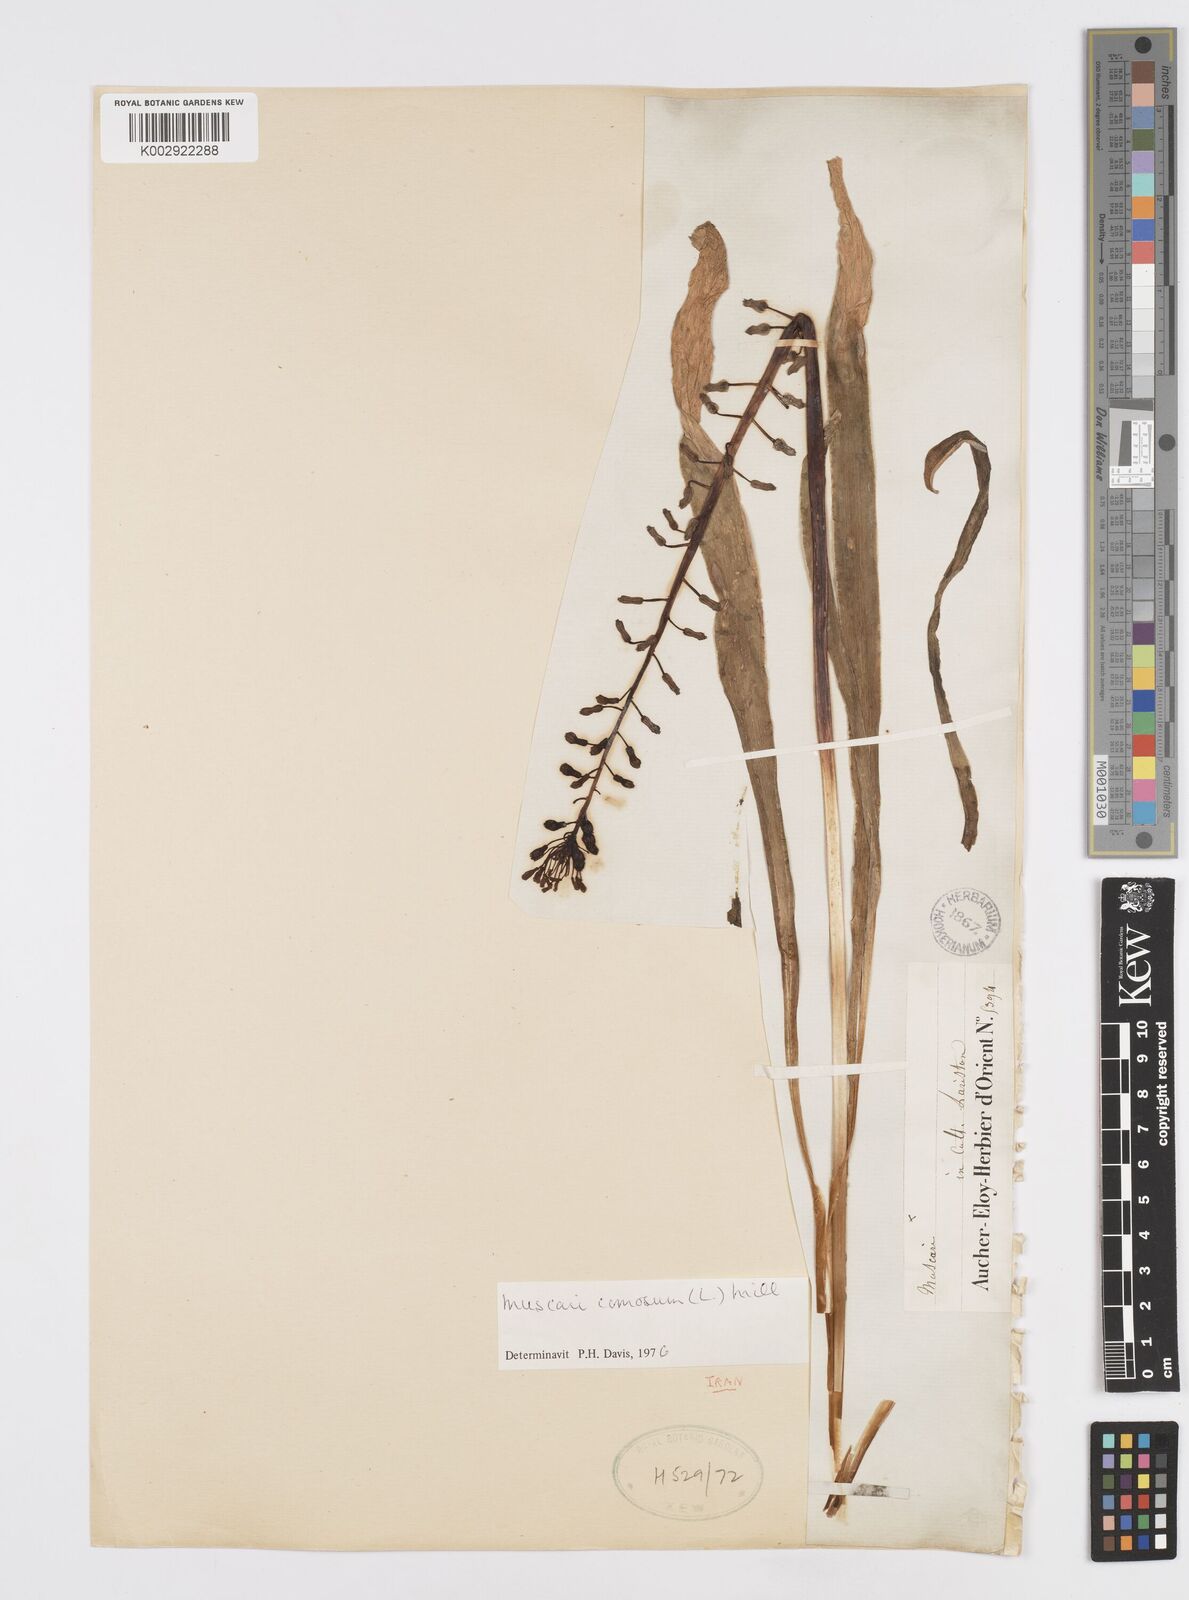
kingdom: Plantae
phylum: Tracheophyta
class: Liliopsida
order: Asparagales
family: Asparagaceae
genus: Muscari
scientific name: Muscari comosum
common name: Tassel hyacinth
